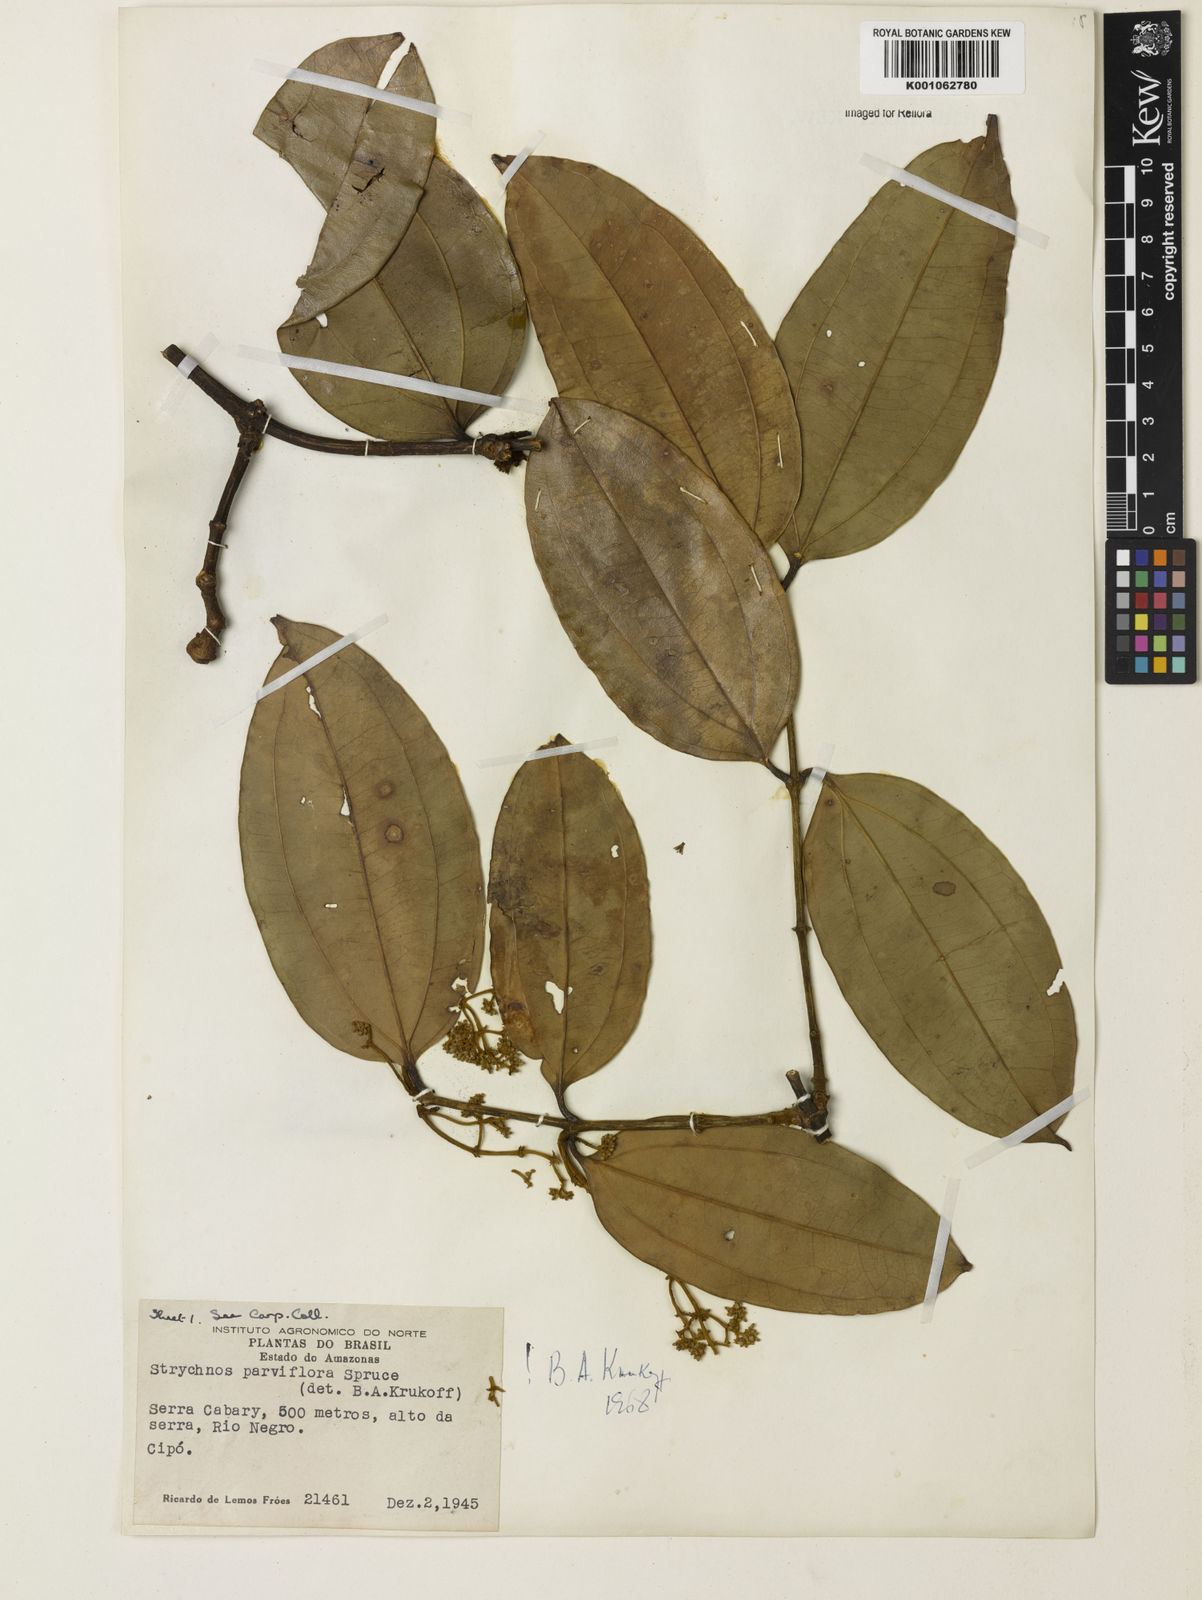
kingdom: Plantae
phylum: Tracheophyta
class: Magnoliopsida
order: Gentianales
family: Loganiaceae
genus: Strychnos
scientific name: Strychnos parviflora
